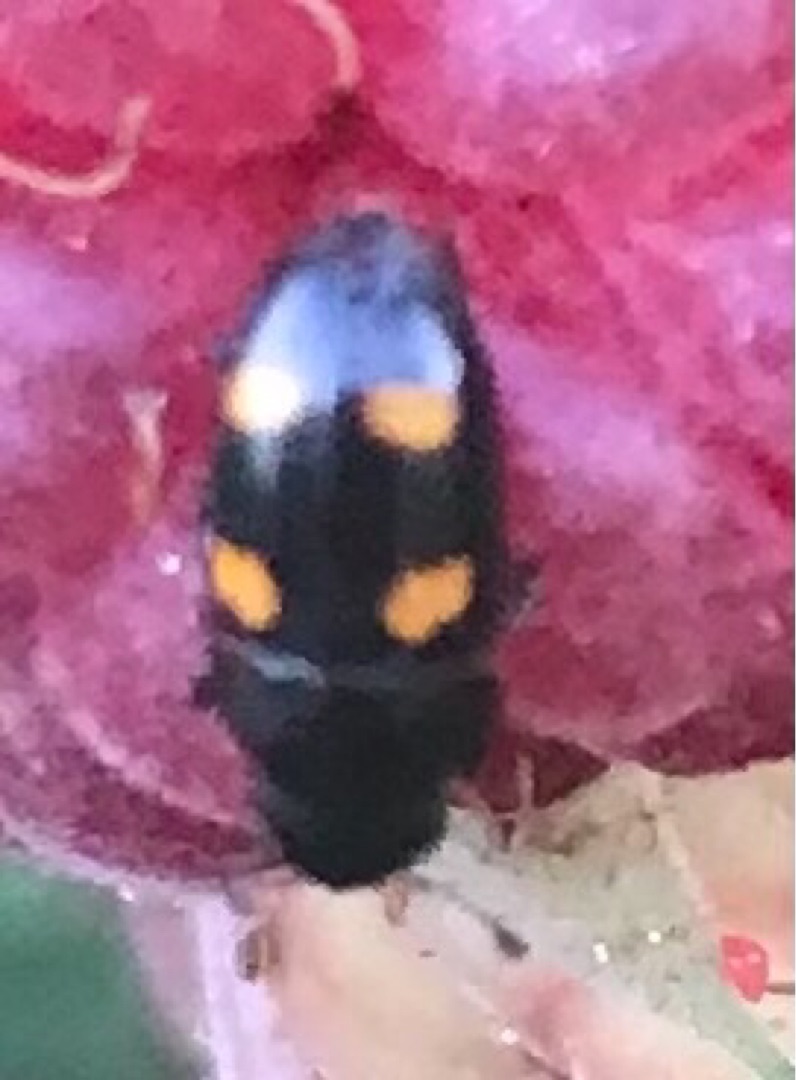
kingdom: Animalia
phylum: Arthropoda
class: Insecta
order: Coleoptera
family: Nitidulidae
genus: Glischrochilus
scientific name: Glischrochilus hortensis
